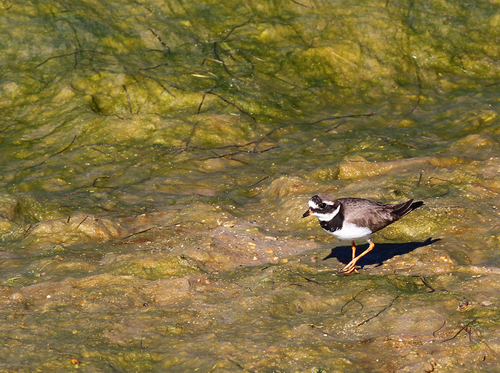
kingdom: Animalia
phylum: Chordata
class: Aves
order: Charadriiformes
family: Charadriidae
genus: Charadrius
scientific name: Charadrius hiaticula
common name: Common ringed plover
